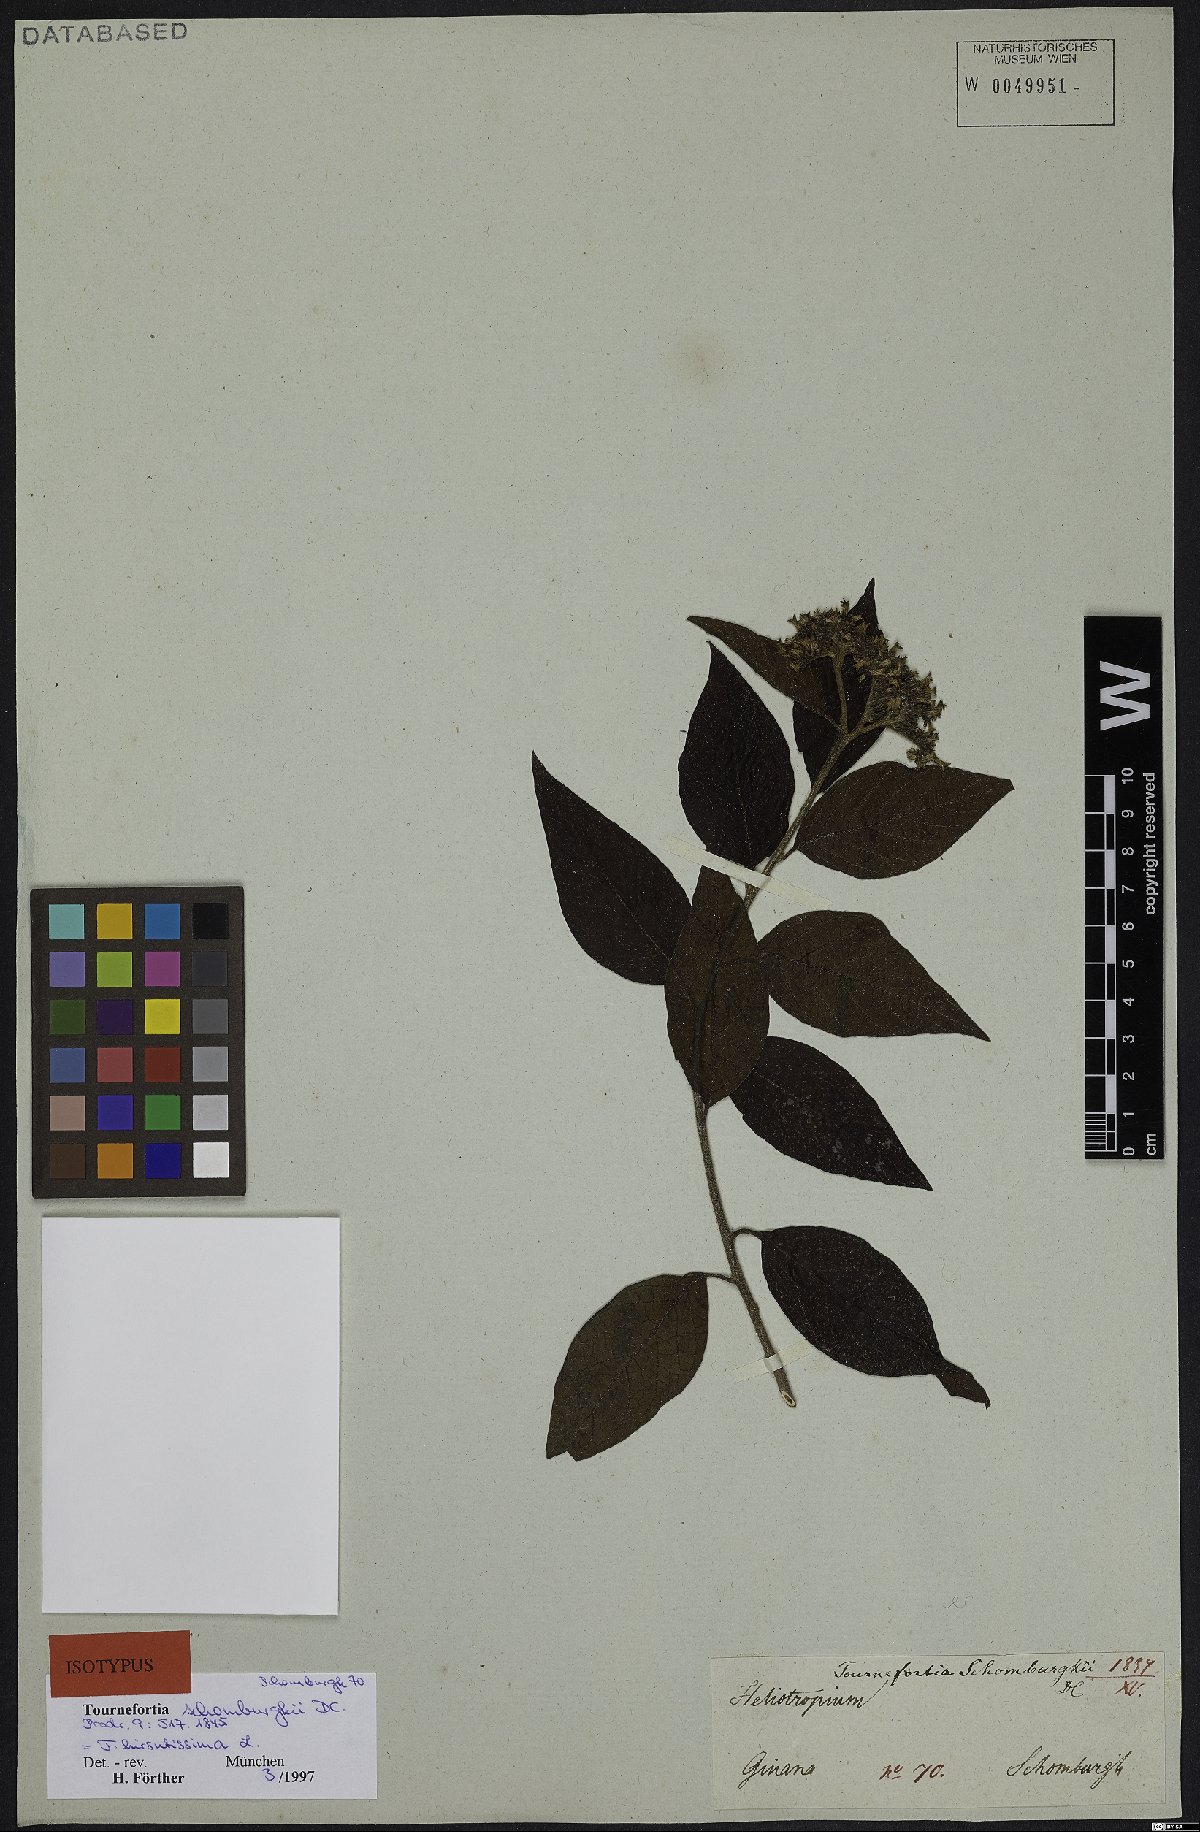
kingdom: Plantae
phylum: Tracheophyta
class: Magnoliopsida
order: Boraginales
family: Heliotropiaceae
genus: Heliotropium
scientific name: Heliotropium verdcourtii
